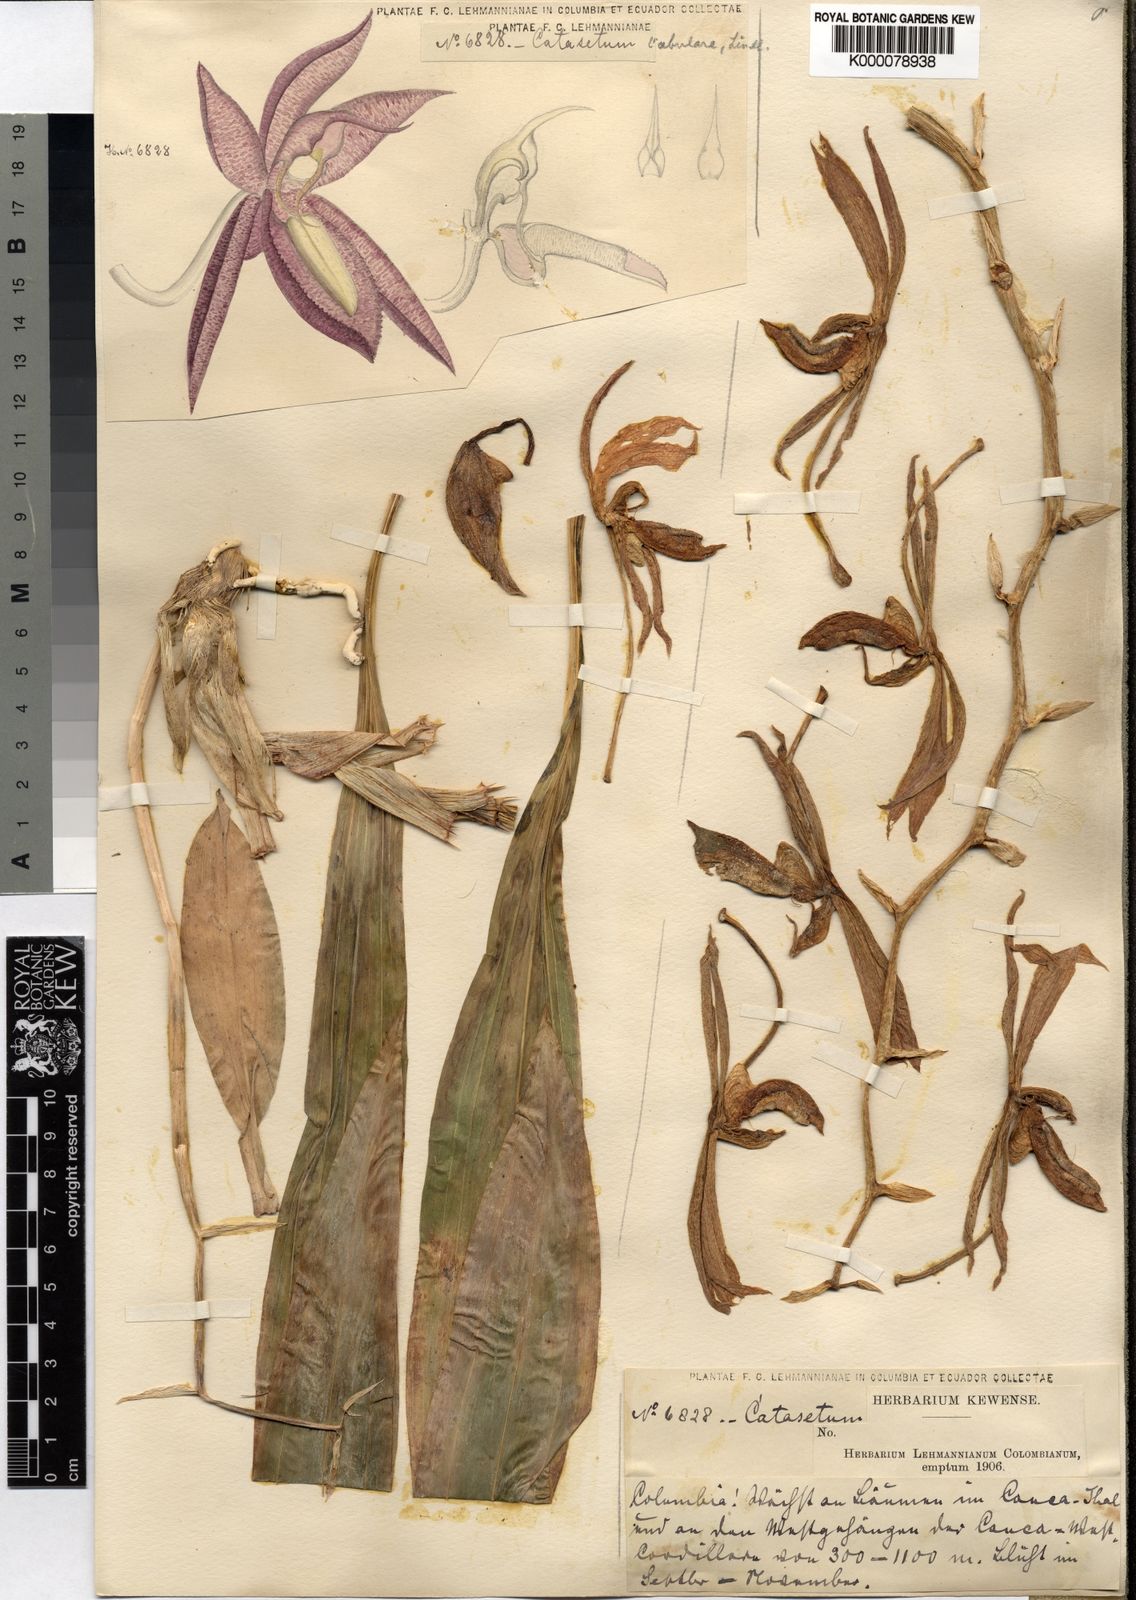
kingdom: Plantae
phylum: Tracheophyta
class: Liliopsida
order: Asparagales
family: Orchidaceae
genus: Catasetum
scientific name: Catasetum
